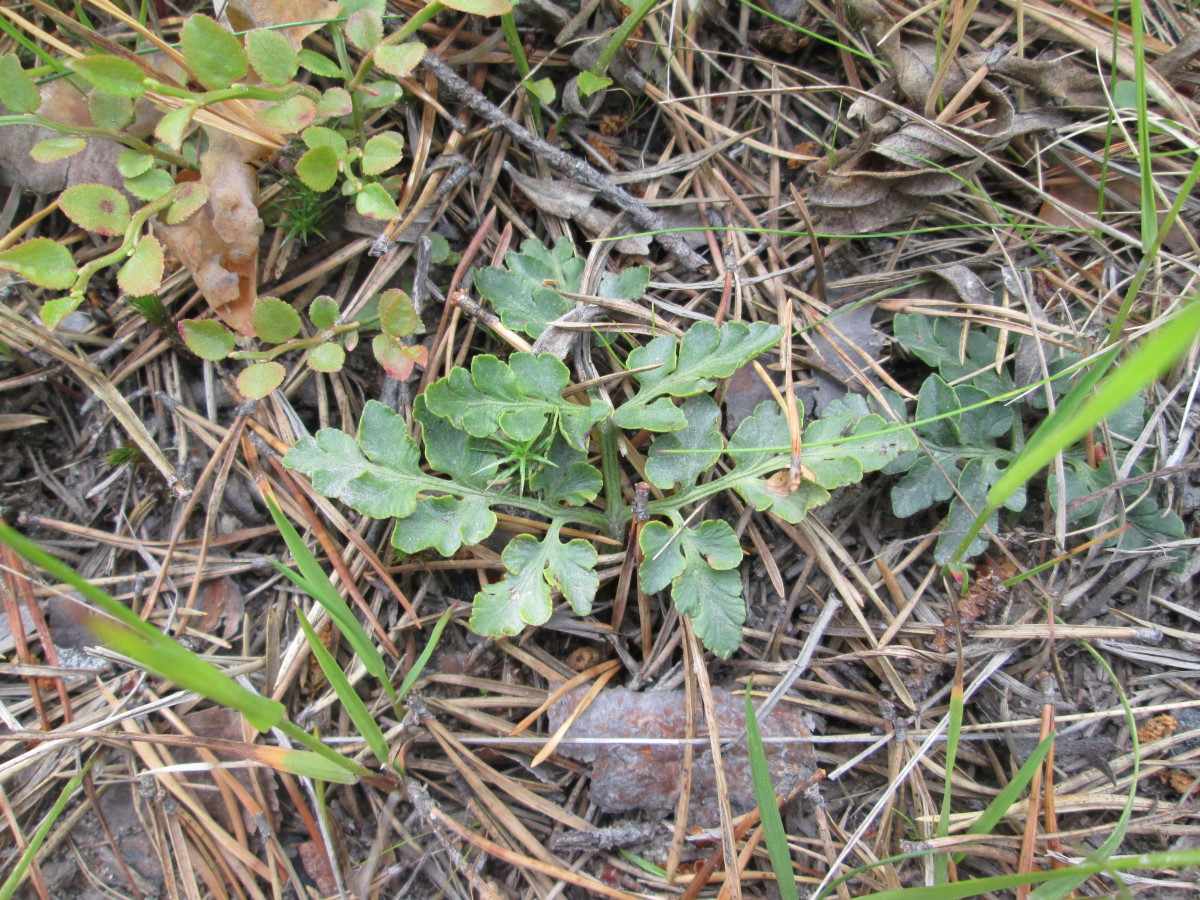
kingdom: Plantae
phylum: Tracheophyta
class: Polypodiopsida
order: Ophioglossales
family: Ophioglossaceae
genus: Sceptridium
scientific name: Sceptridium multifidum
